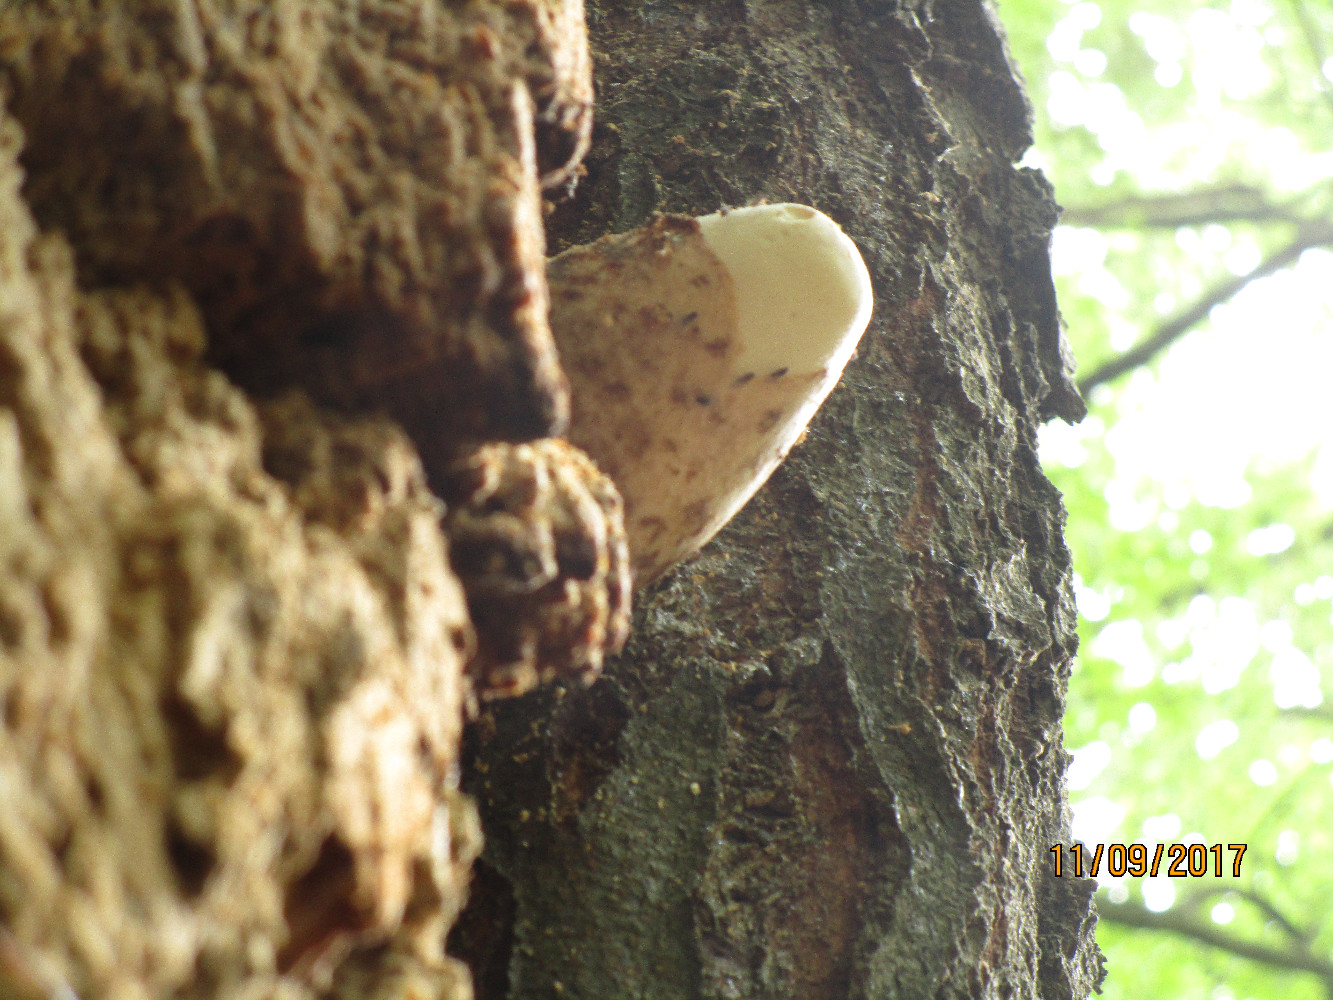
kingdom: Fungi
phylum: Basidiomycota
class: Agaricomycetes
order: Agaricales
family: Pluteaceae
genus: Volvariella
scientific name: Volvariella bombycina
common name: silkehåret posesvamp
